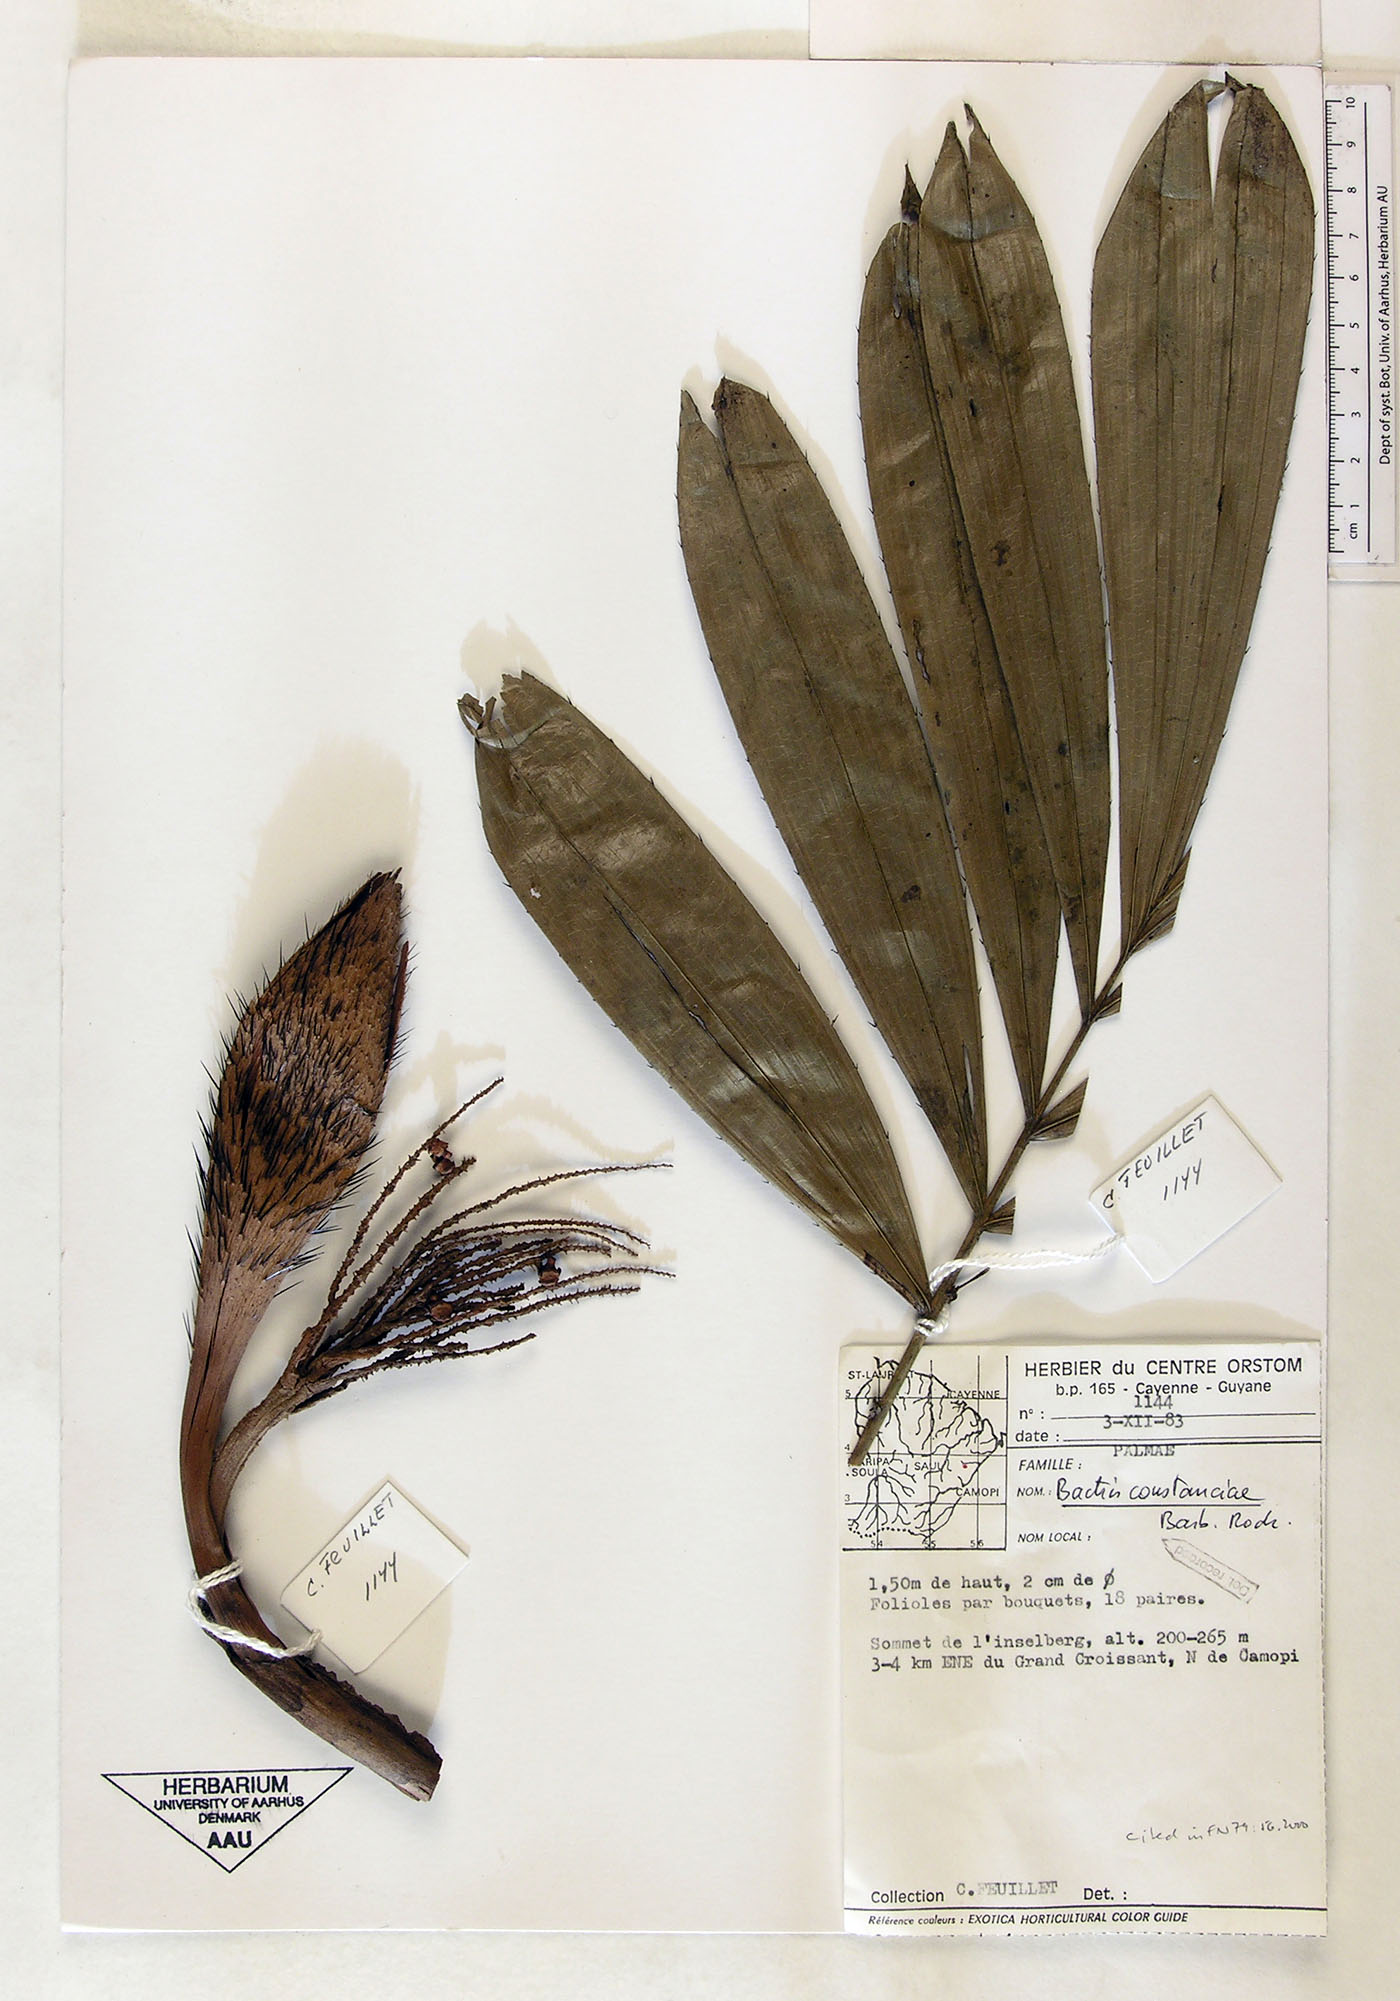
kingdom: Plantae
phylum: Tracheophyta
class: Liliopsida
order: Arecales
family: Arecaceae
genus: Bactris
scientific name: Bactris constanciae
